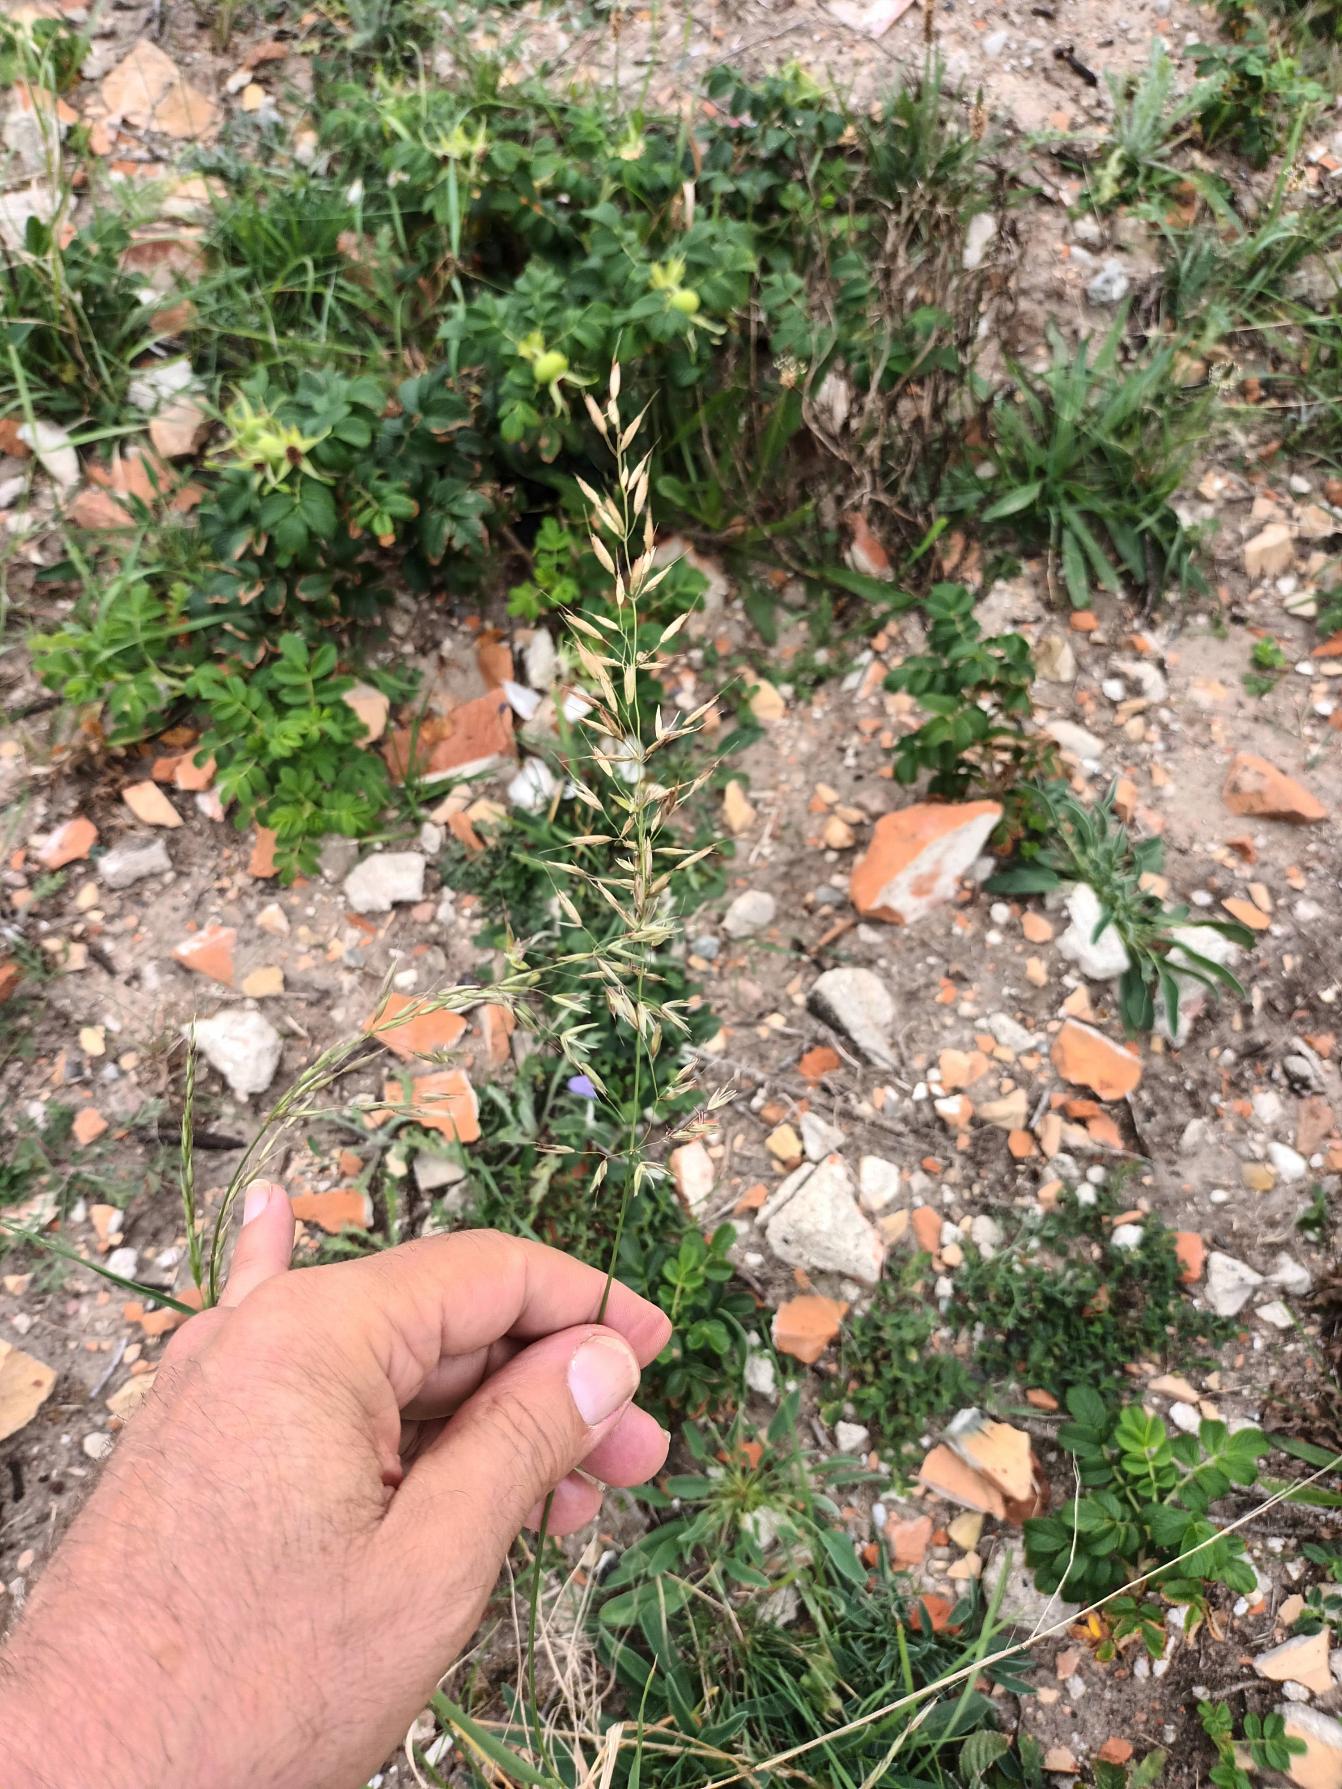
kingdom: Plantae
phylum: Tracheophyta
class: Liliopsida
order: Poales
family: Poaceae
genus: Arrhenatherum
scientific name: Arrhenatherum elatius
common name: Draphavre
